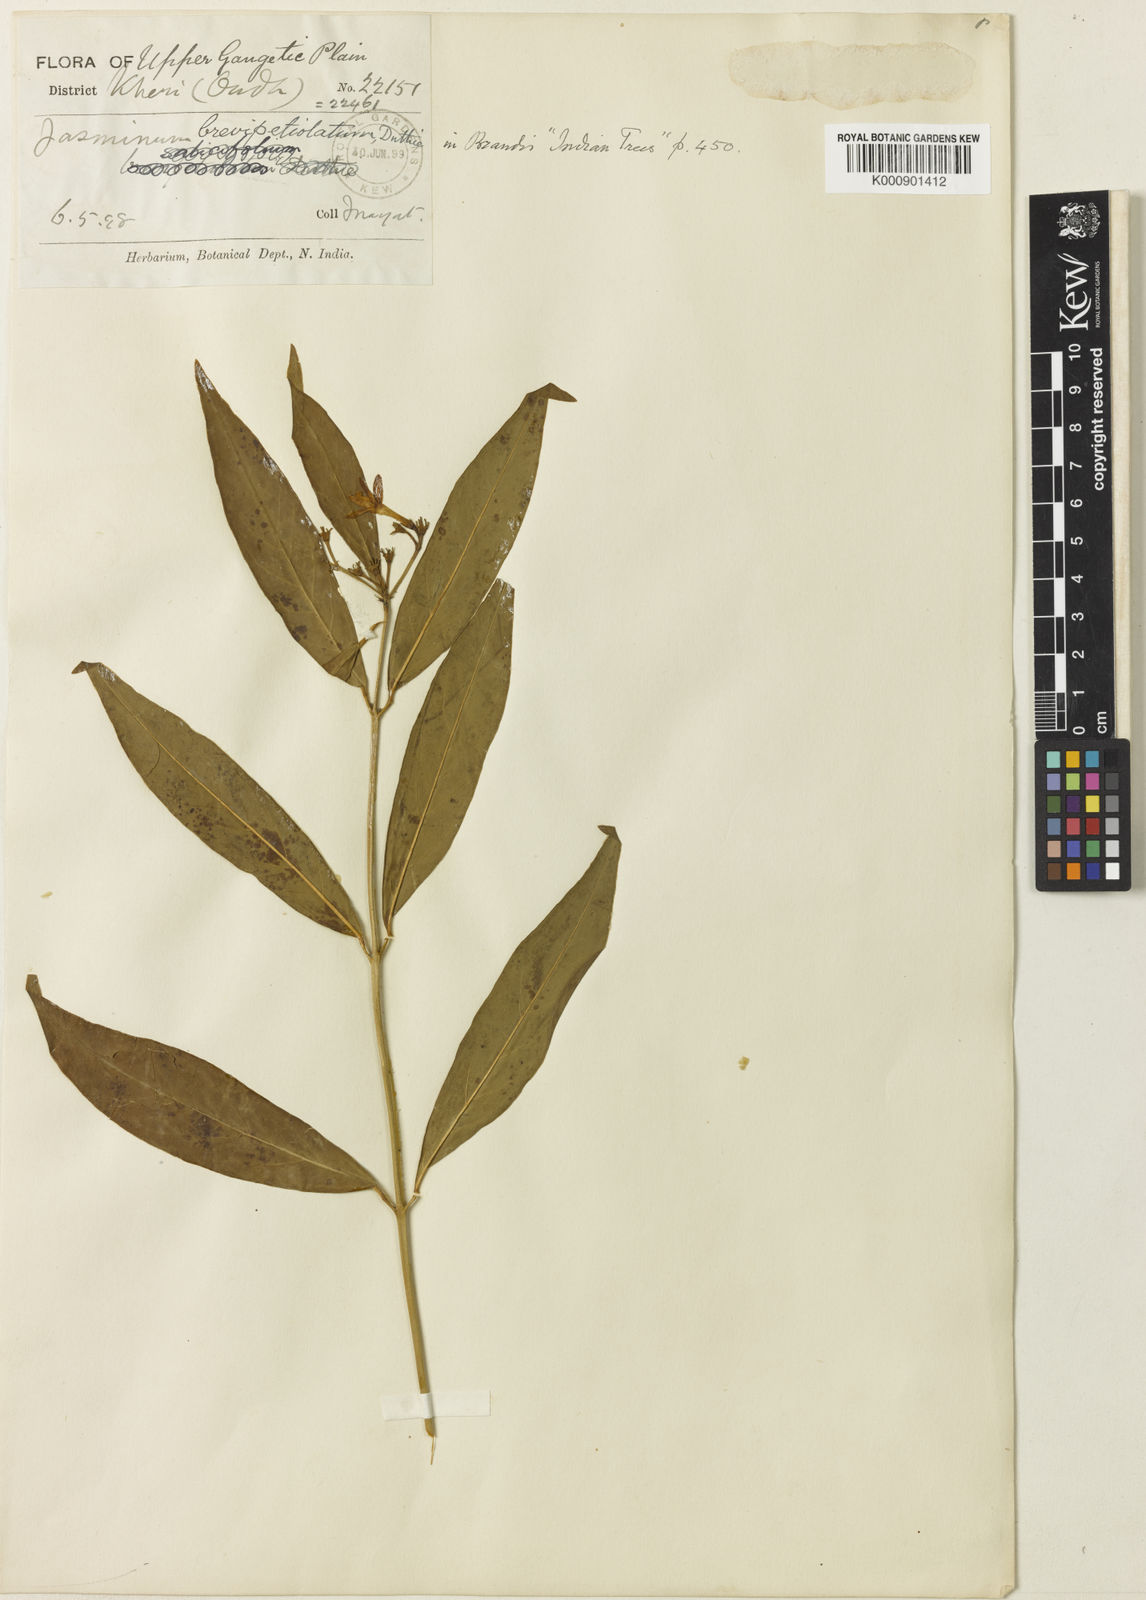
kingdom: Plantae
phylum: Tracheophyta
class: Magnoliopsida
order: Lamiales
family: Oleaceae
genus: Jasminum
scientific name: Jasminum
